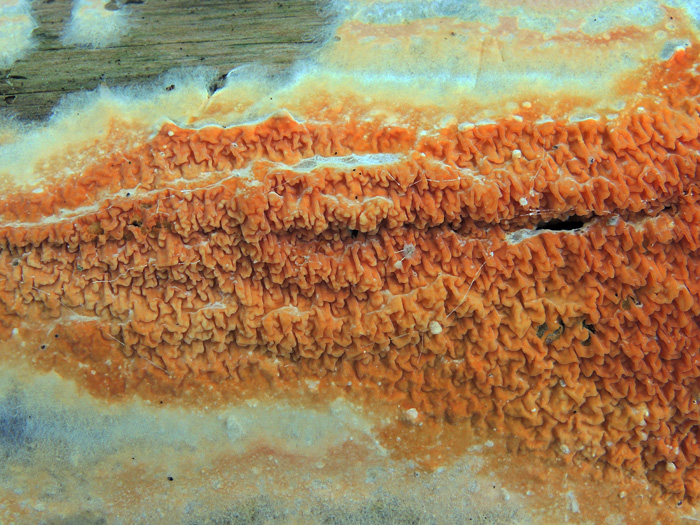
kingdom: Fungi
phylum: Basidiomycota
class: Agaricomycetes
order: Boletales
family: Hygrophoropsidaceae
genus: Leucogyrophana
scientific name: Leucogyrophana mollusca
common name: blød hussvamp
